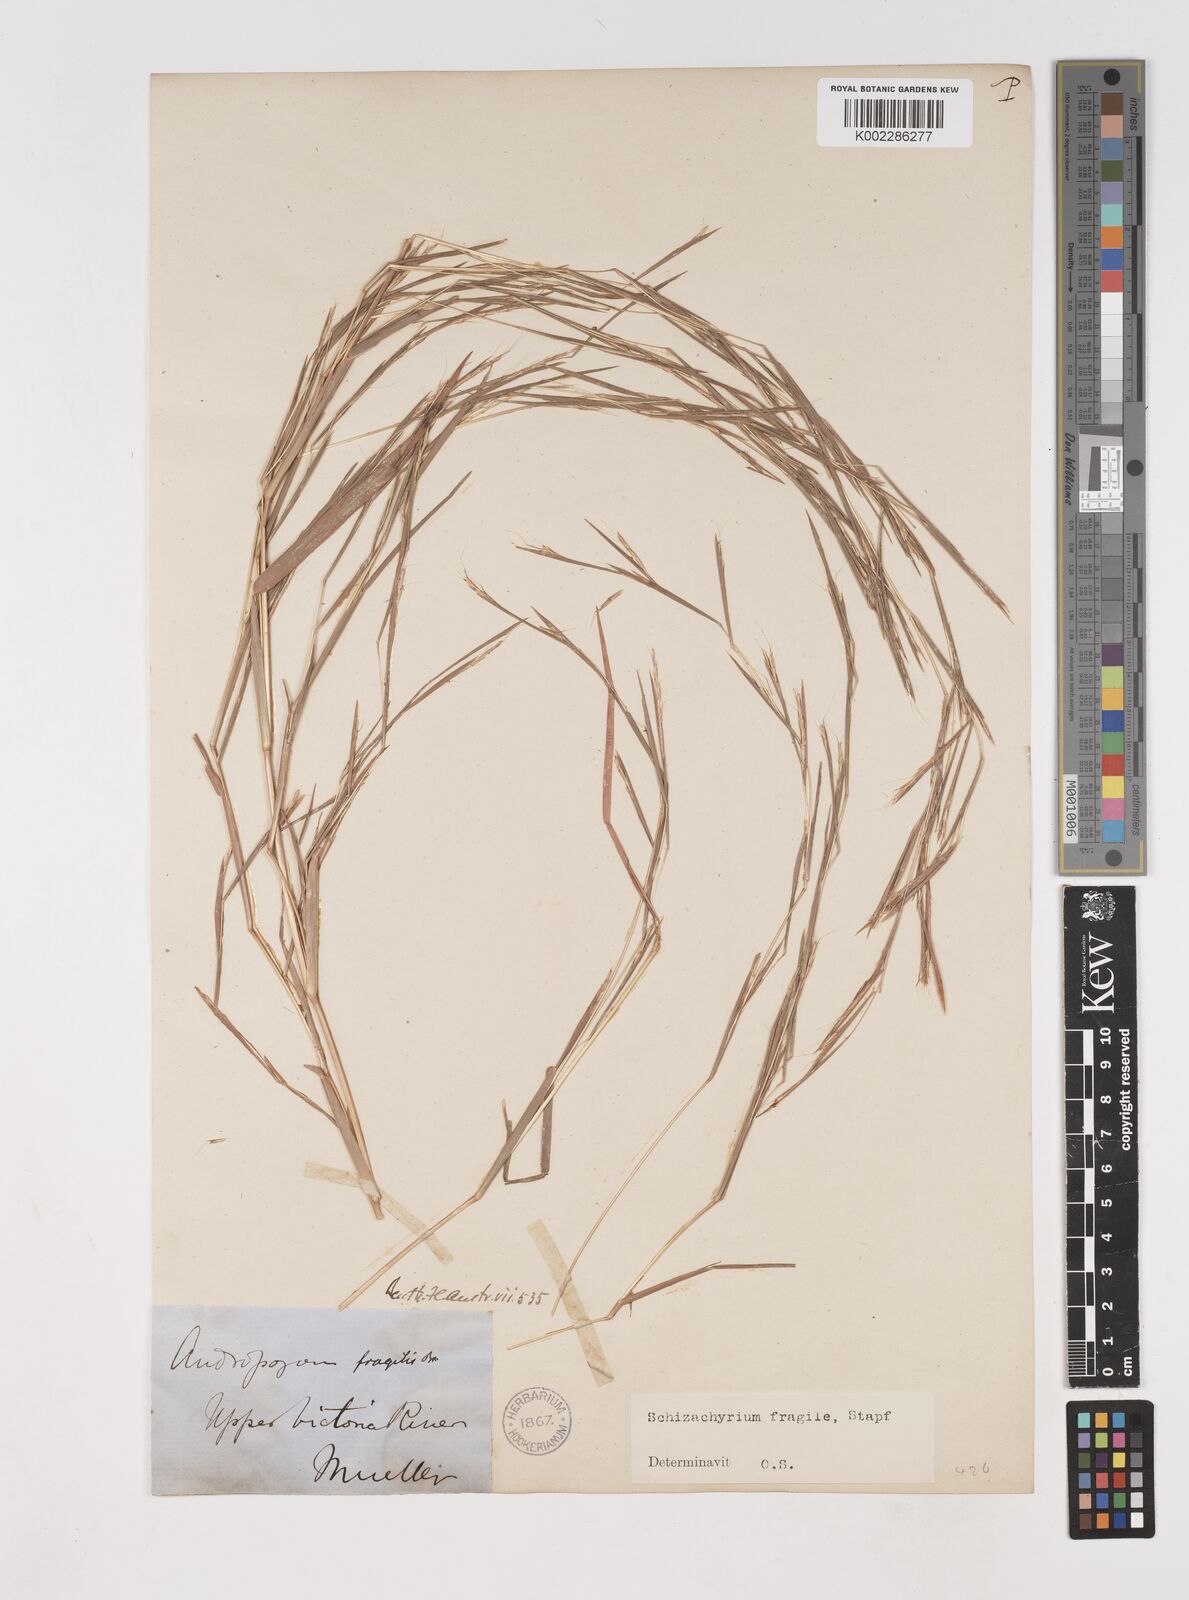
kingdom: Plantae
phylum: Tracheophyta
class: Liliopsida
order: Poales
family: Poaceae
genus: Schizachyrium
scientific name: Schizachyrium pseudeulalia
